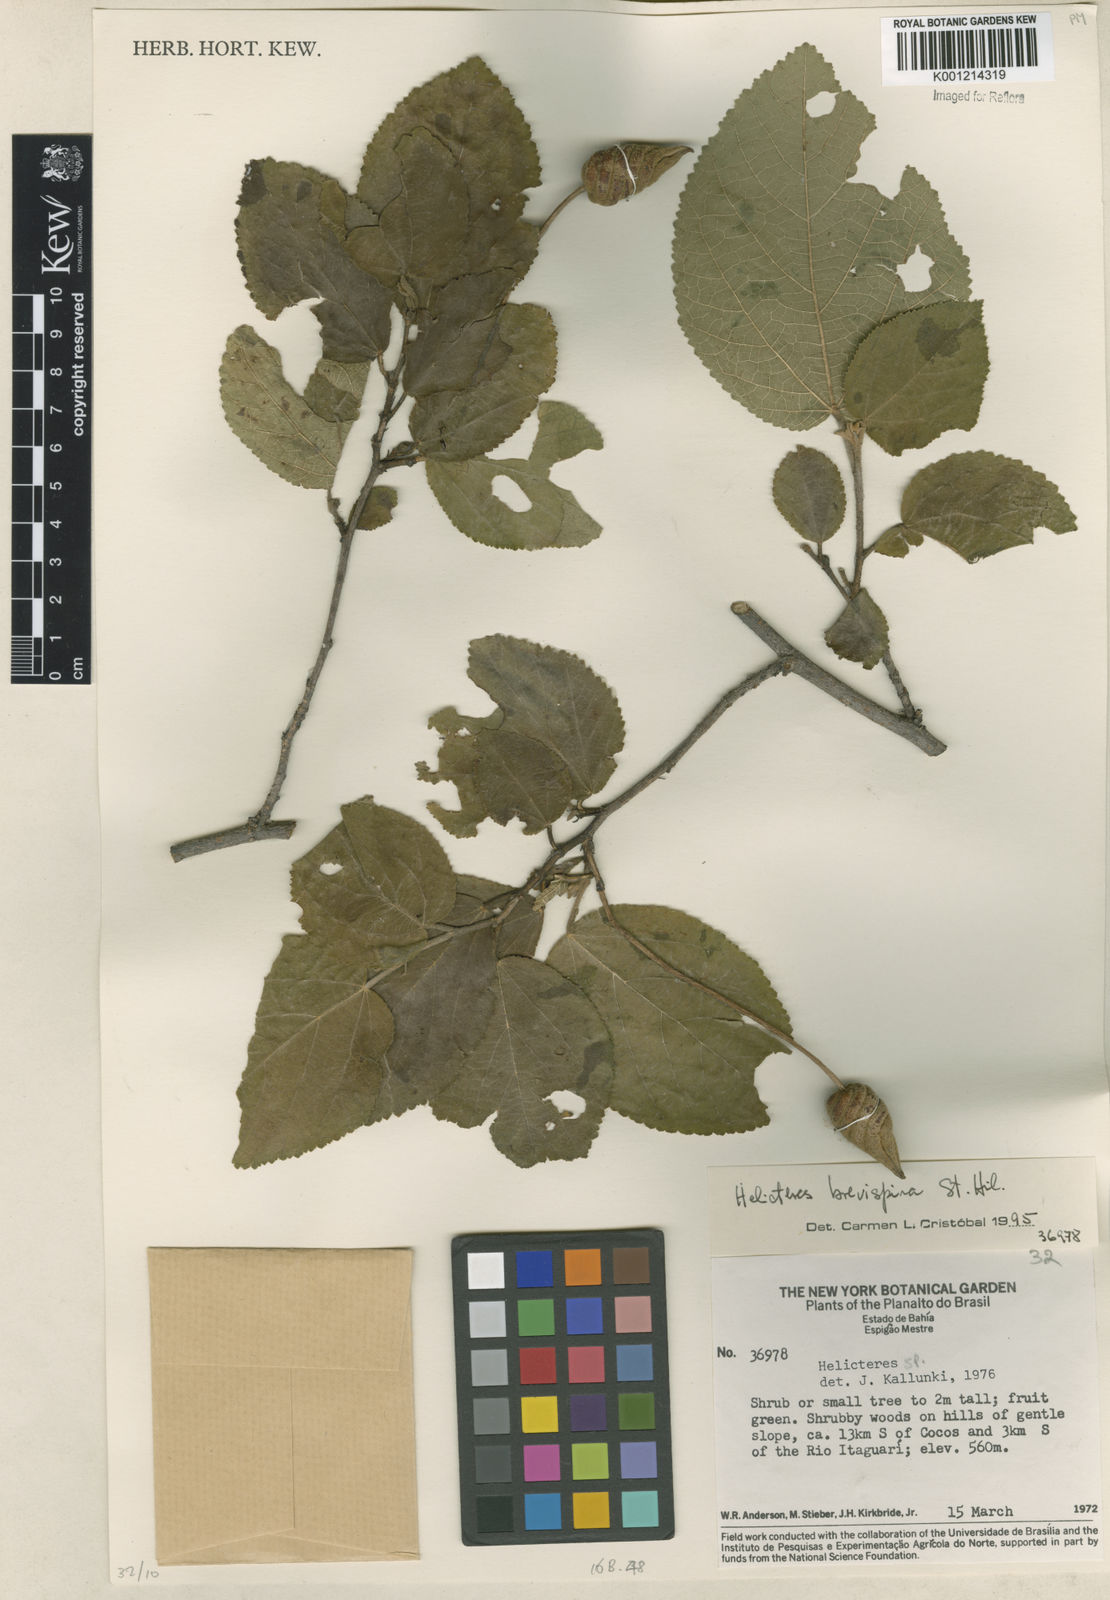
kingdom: Plantae
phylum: Tracheophyta
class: Magnoliopsida
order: Malvales
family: Malvaceae
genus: Helicteres
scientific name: Helicteres
